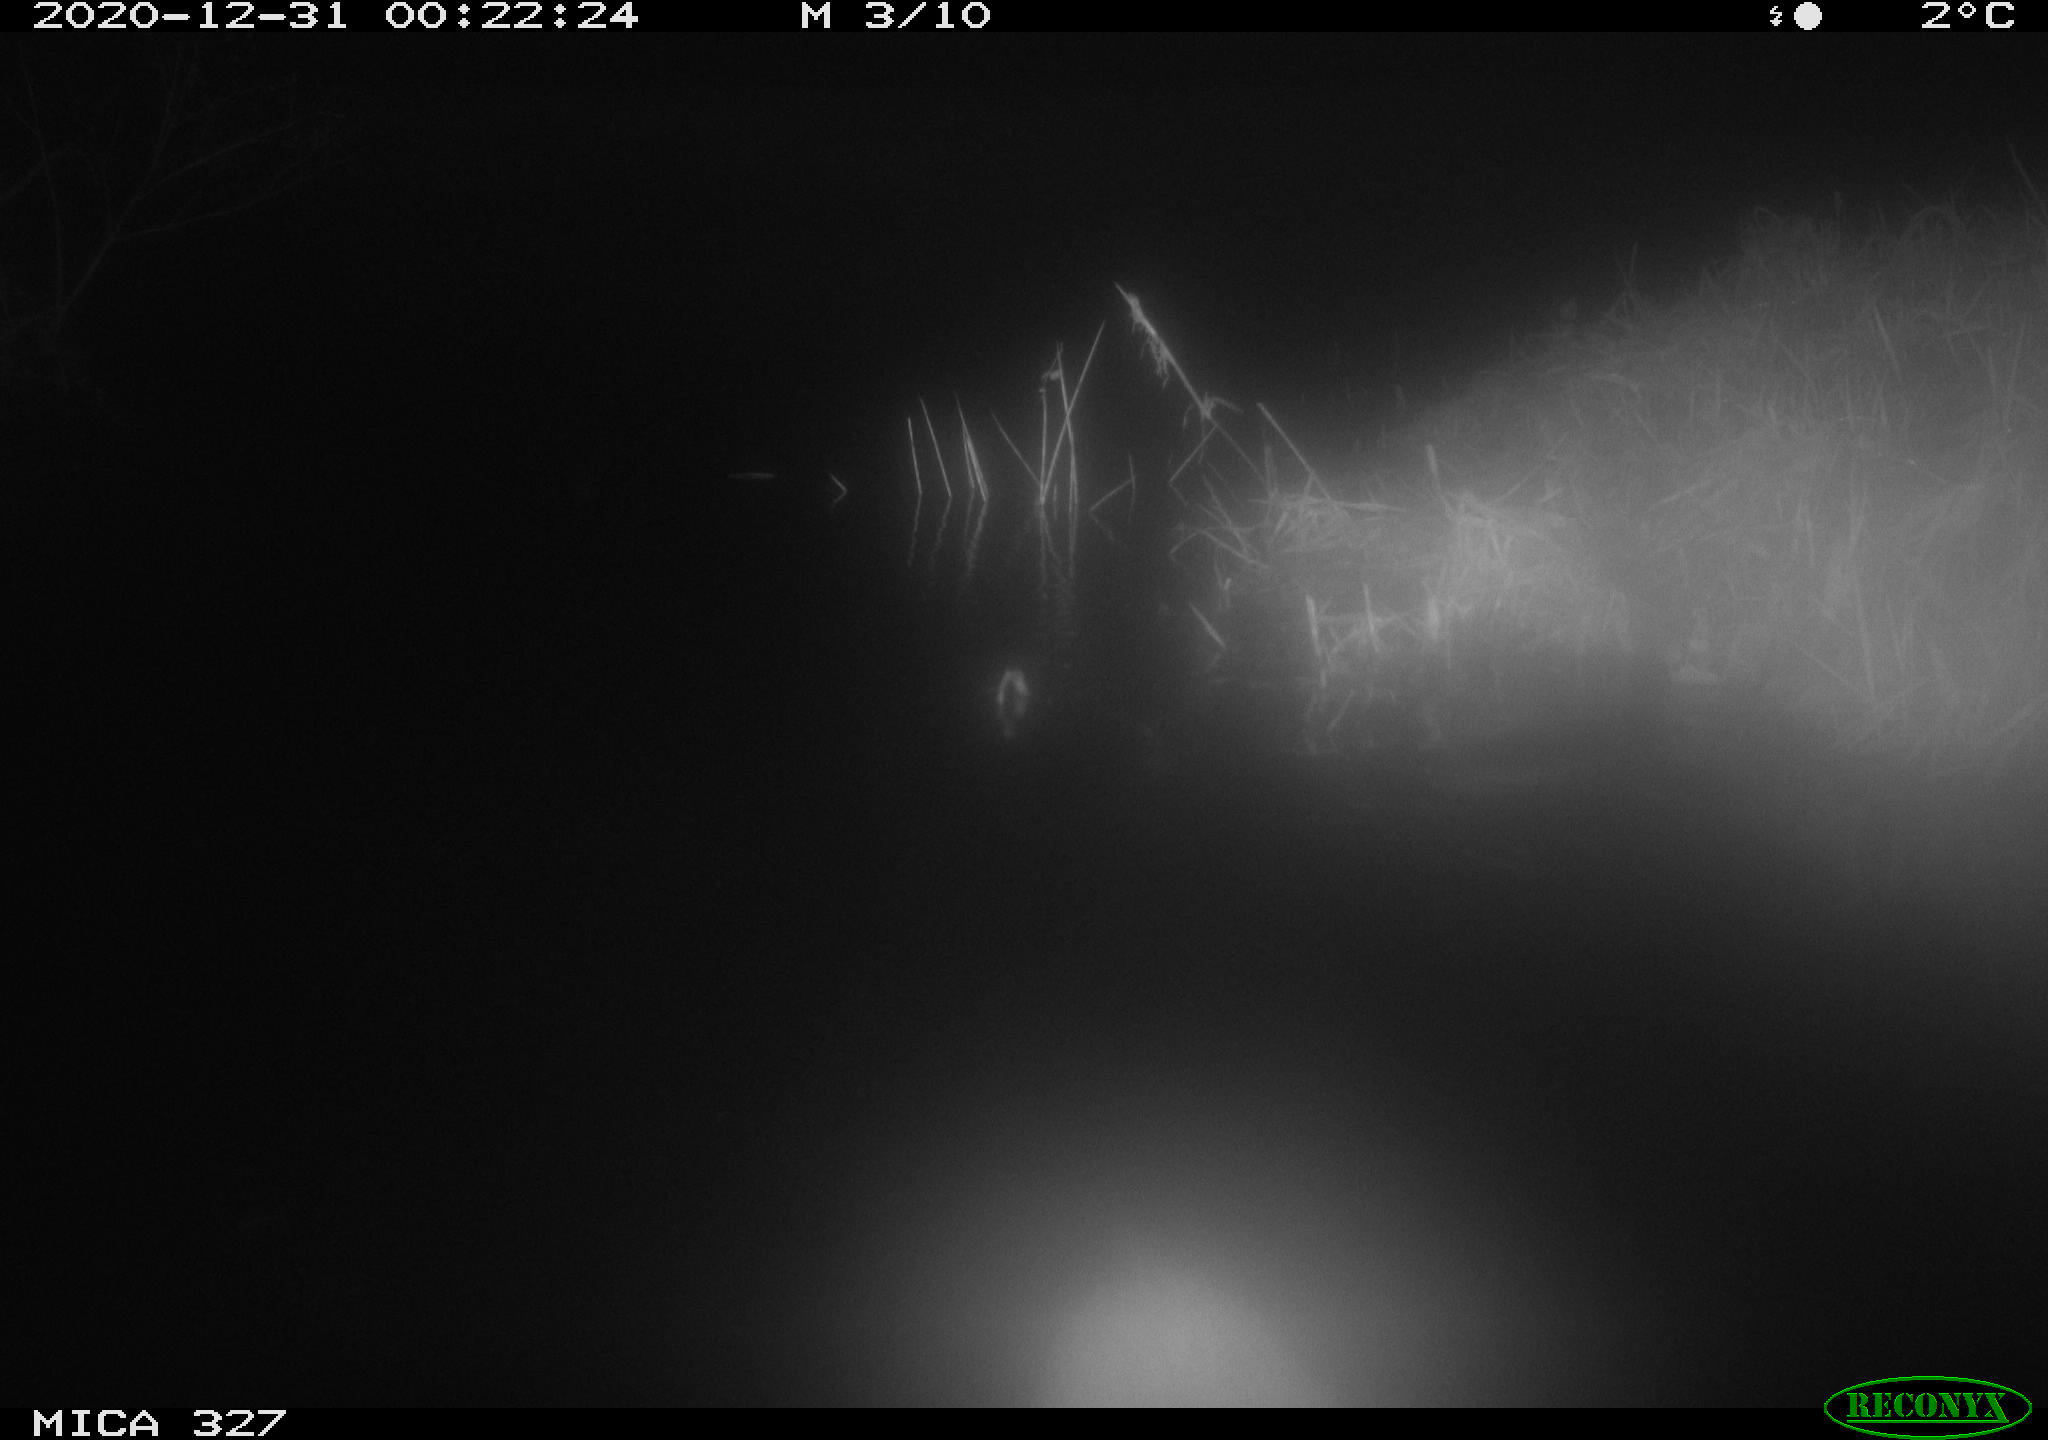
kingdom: Animalia
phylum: Chordata
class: Mammalia
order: Rodentia
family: Cricetidae
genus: Ondatra
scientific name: Ondatra zibethicus
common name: Muskrat
